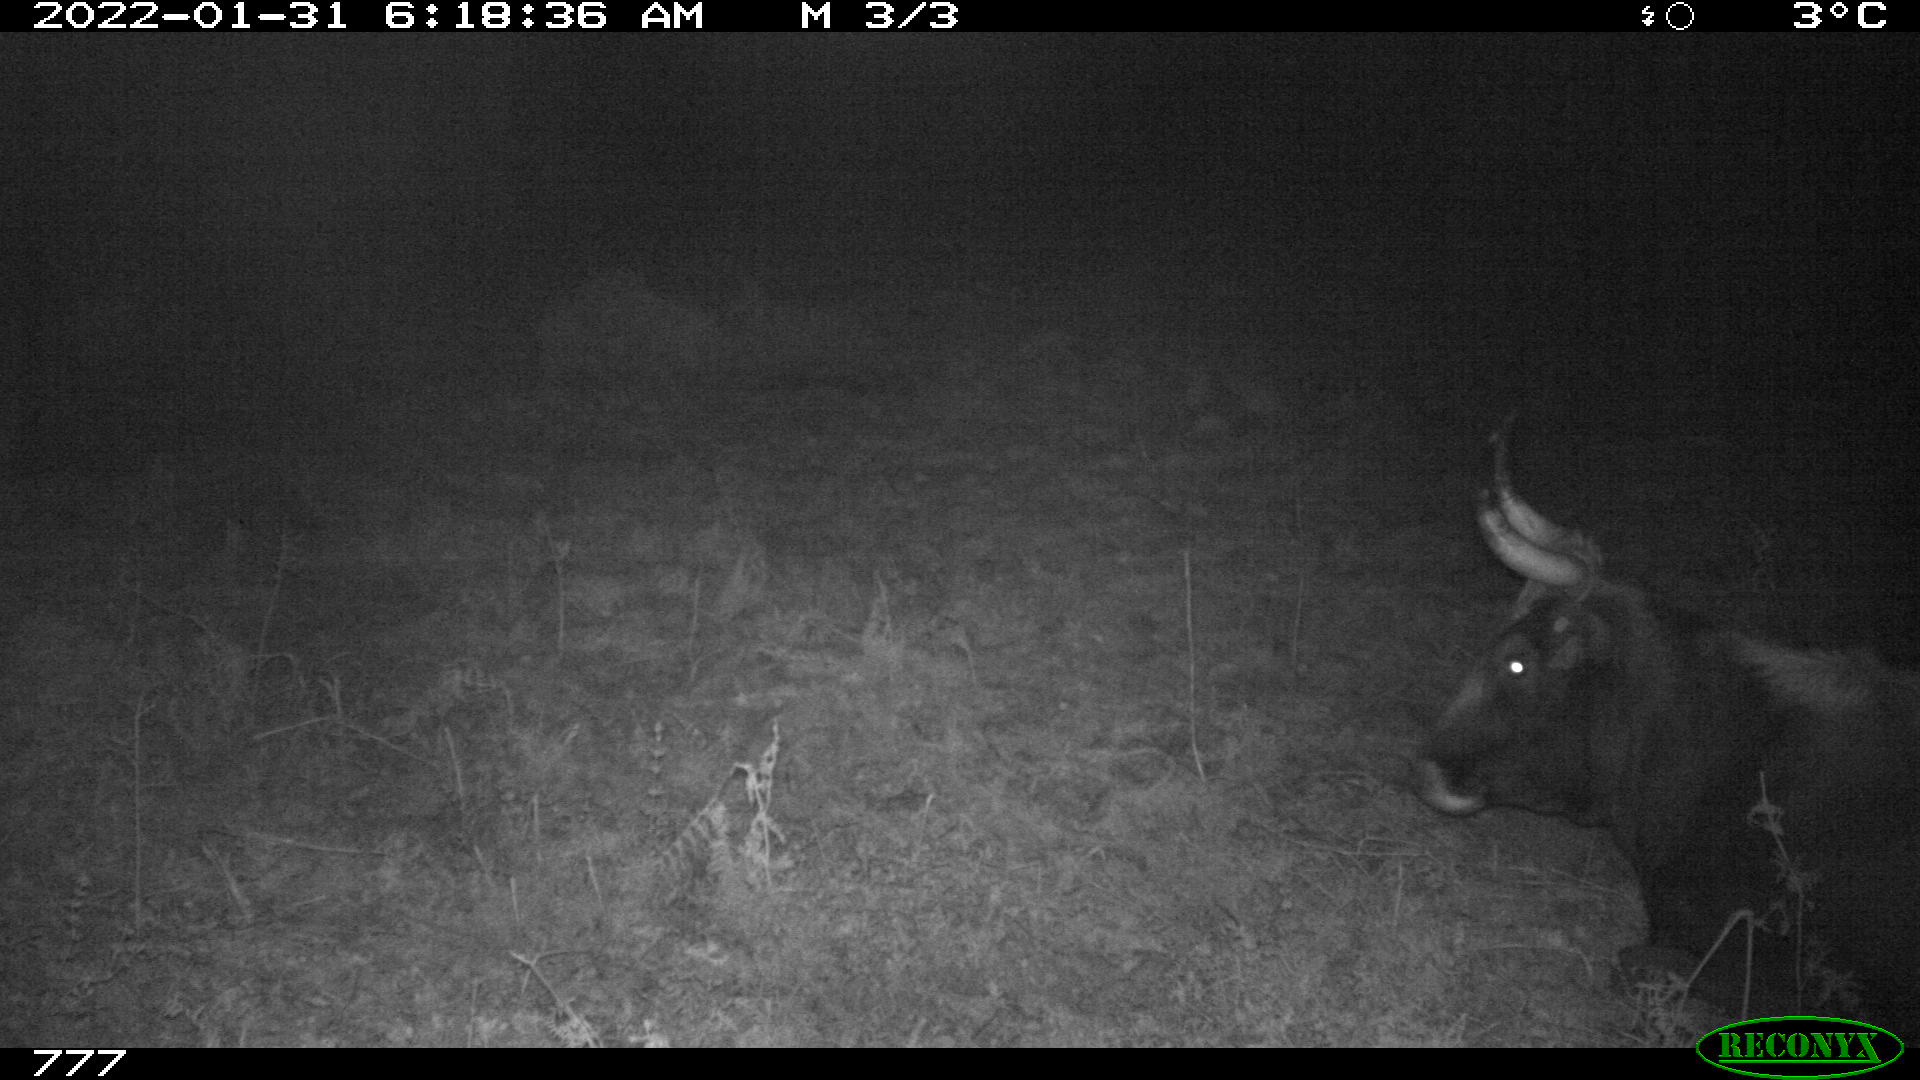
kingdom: Animalia
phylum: Chordata
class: Mammalia
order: Artiodactyla
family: Bovidae
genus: Bos
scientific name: Bos taurus
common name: Domesticated cattle
